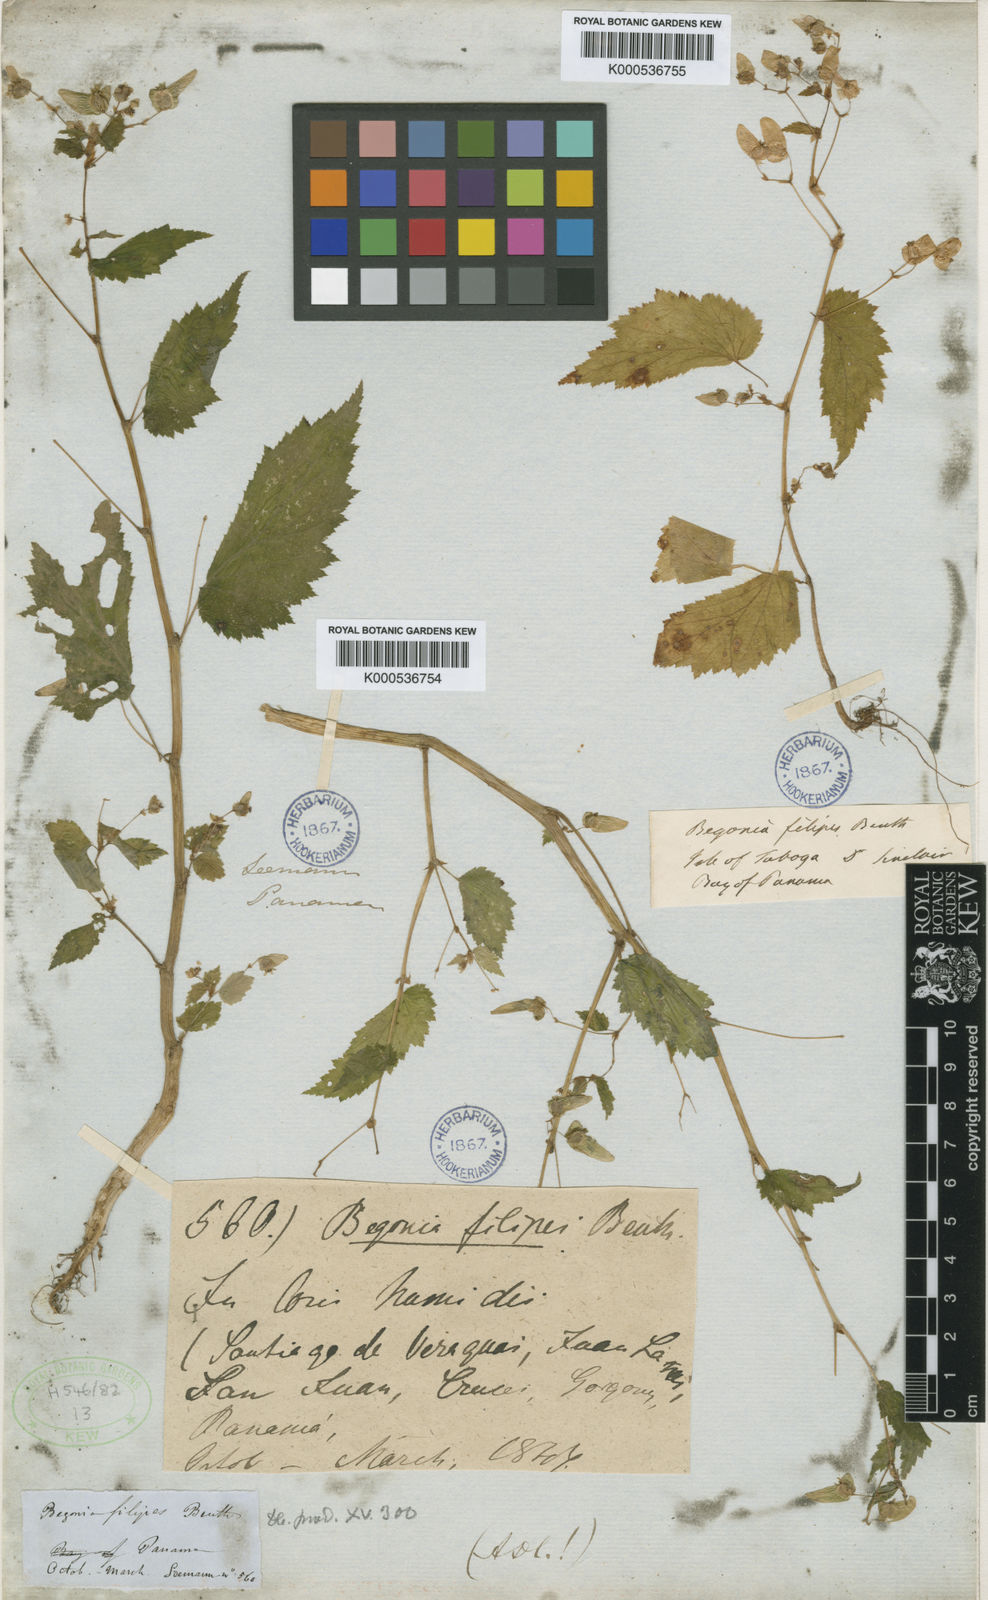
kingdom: Plantae
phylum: Tracheophyta
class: Magnoliopsida
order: Cucurbitales
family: Begoniaceae
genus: Begonia
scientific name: Begonia hirsuta
